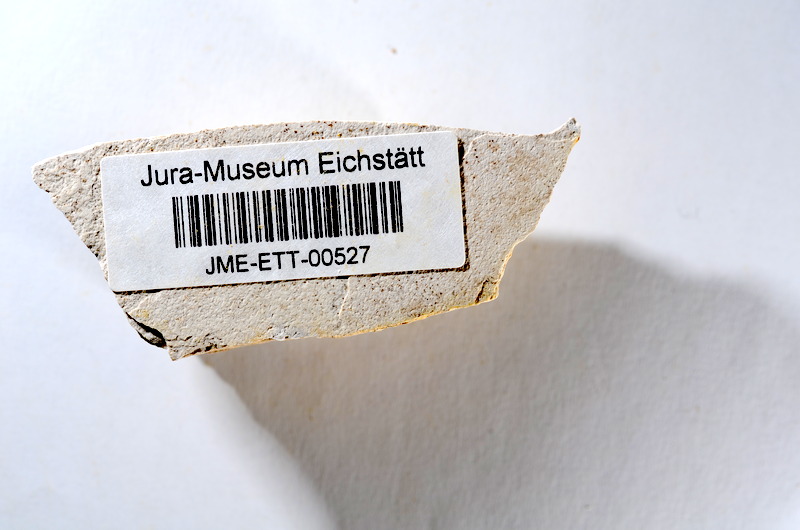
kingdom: Animalia
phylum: Chordata
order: Salmoniformes
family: Orthogonikleithridae
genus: Orthogonikleithrus
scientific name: Orthogonikleithrus hoelli
